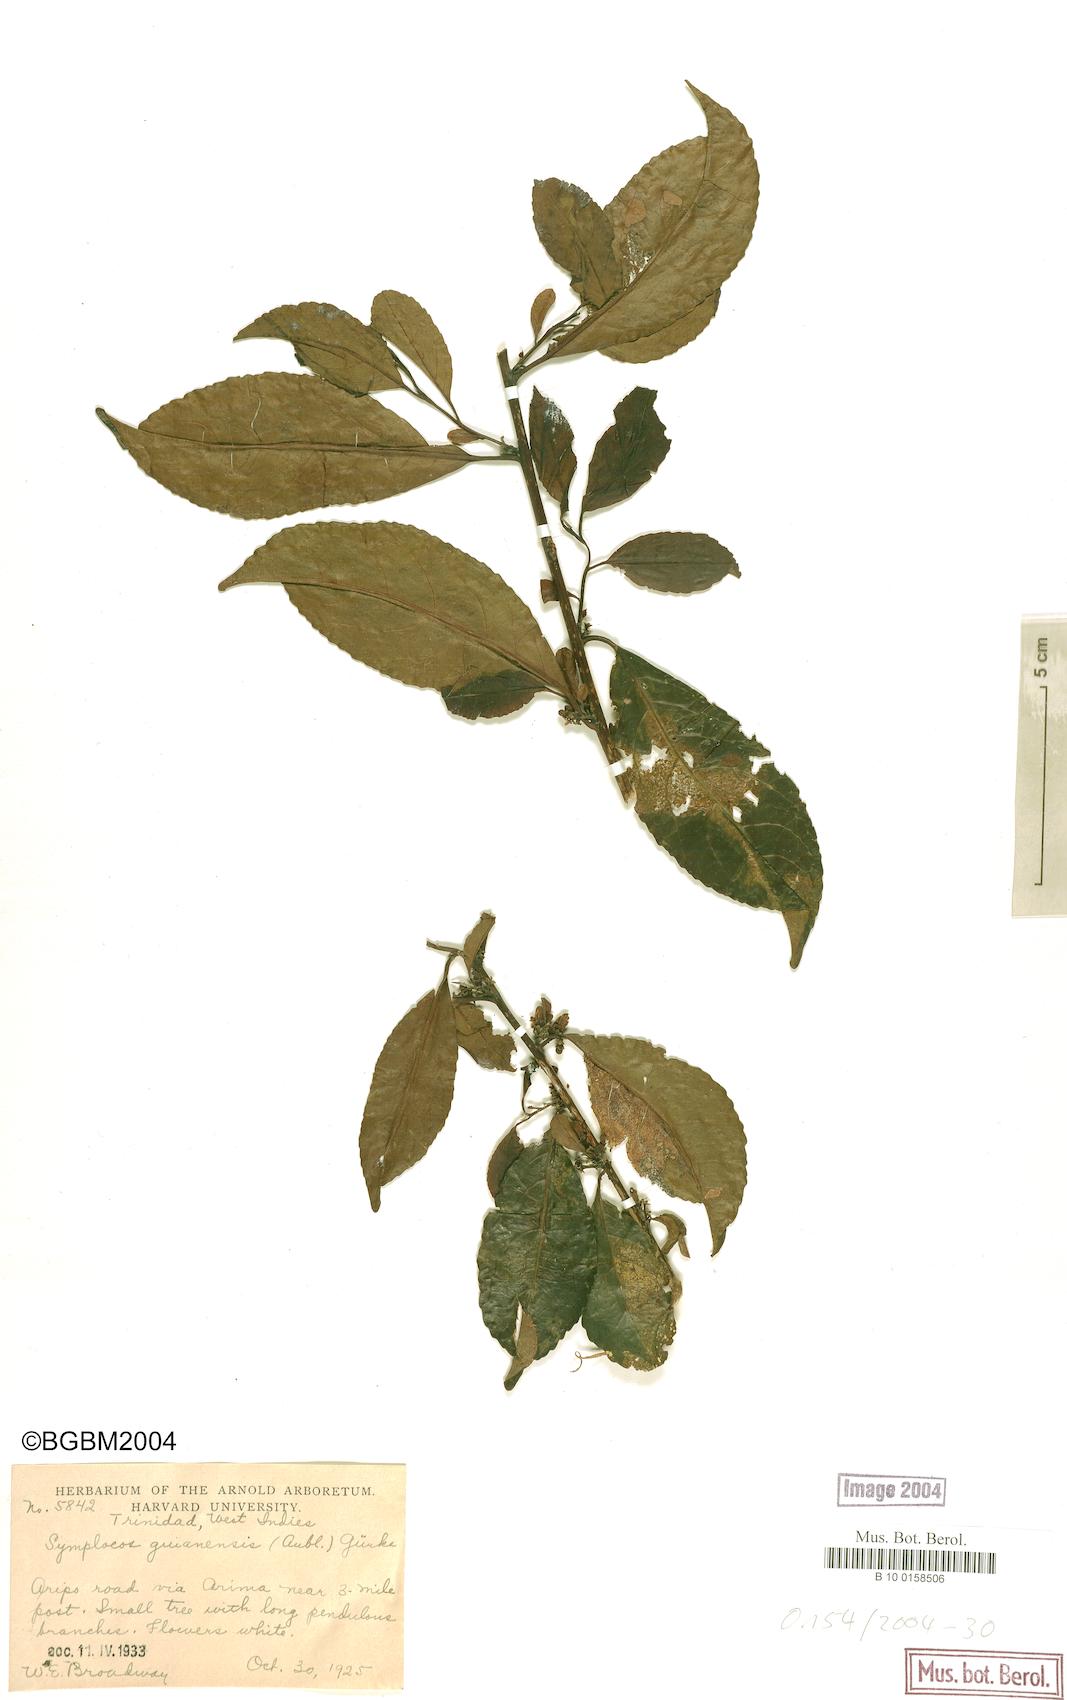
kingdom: Plantae
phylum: Tracheophyta
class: Magnoliopsida
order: Ericales
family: Symplocaceae
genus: Symplocos
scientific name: Symplocos guianensis
